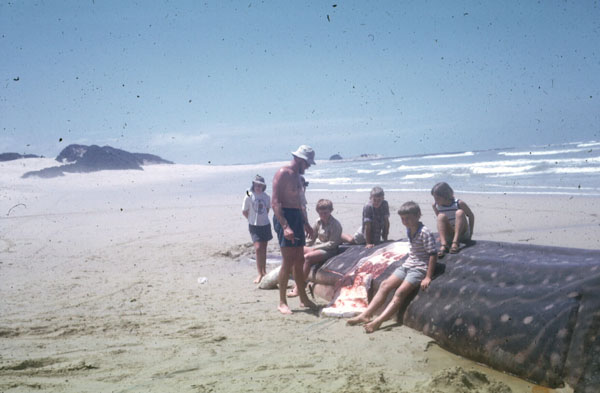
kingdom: Animalia
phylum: Chordata
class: Elasmobranchii
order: Orectolobiformes
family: Rhincodontidae
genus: Rhincodon
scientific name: Rhincodon typus
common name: Whale shark
